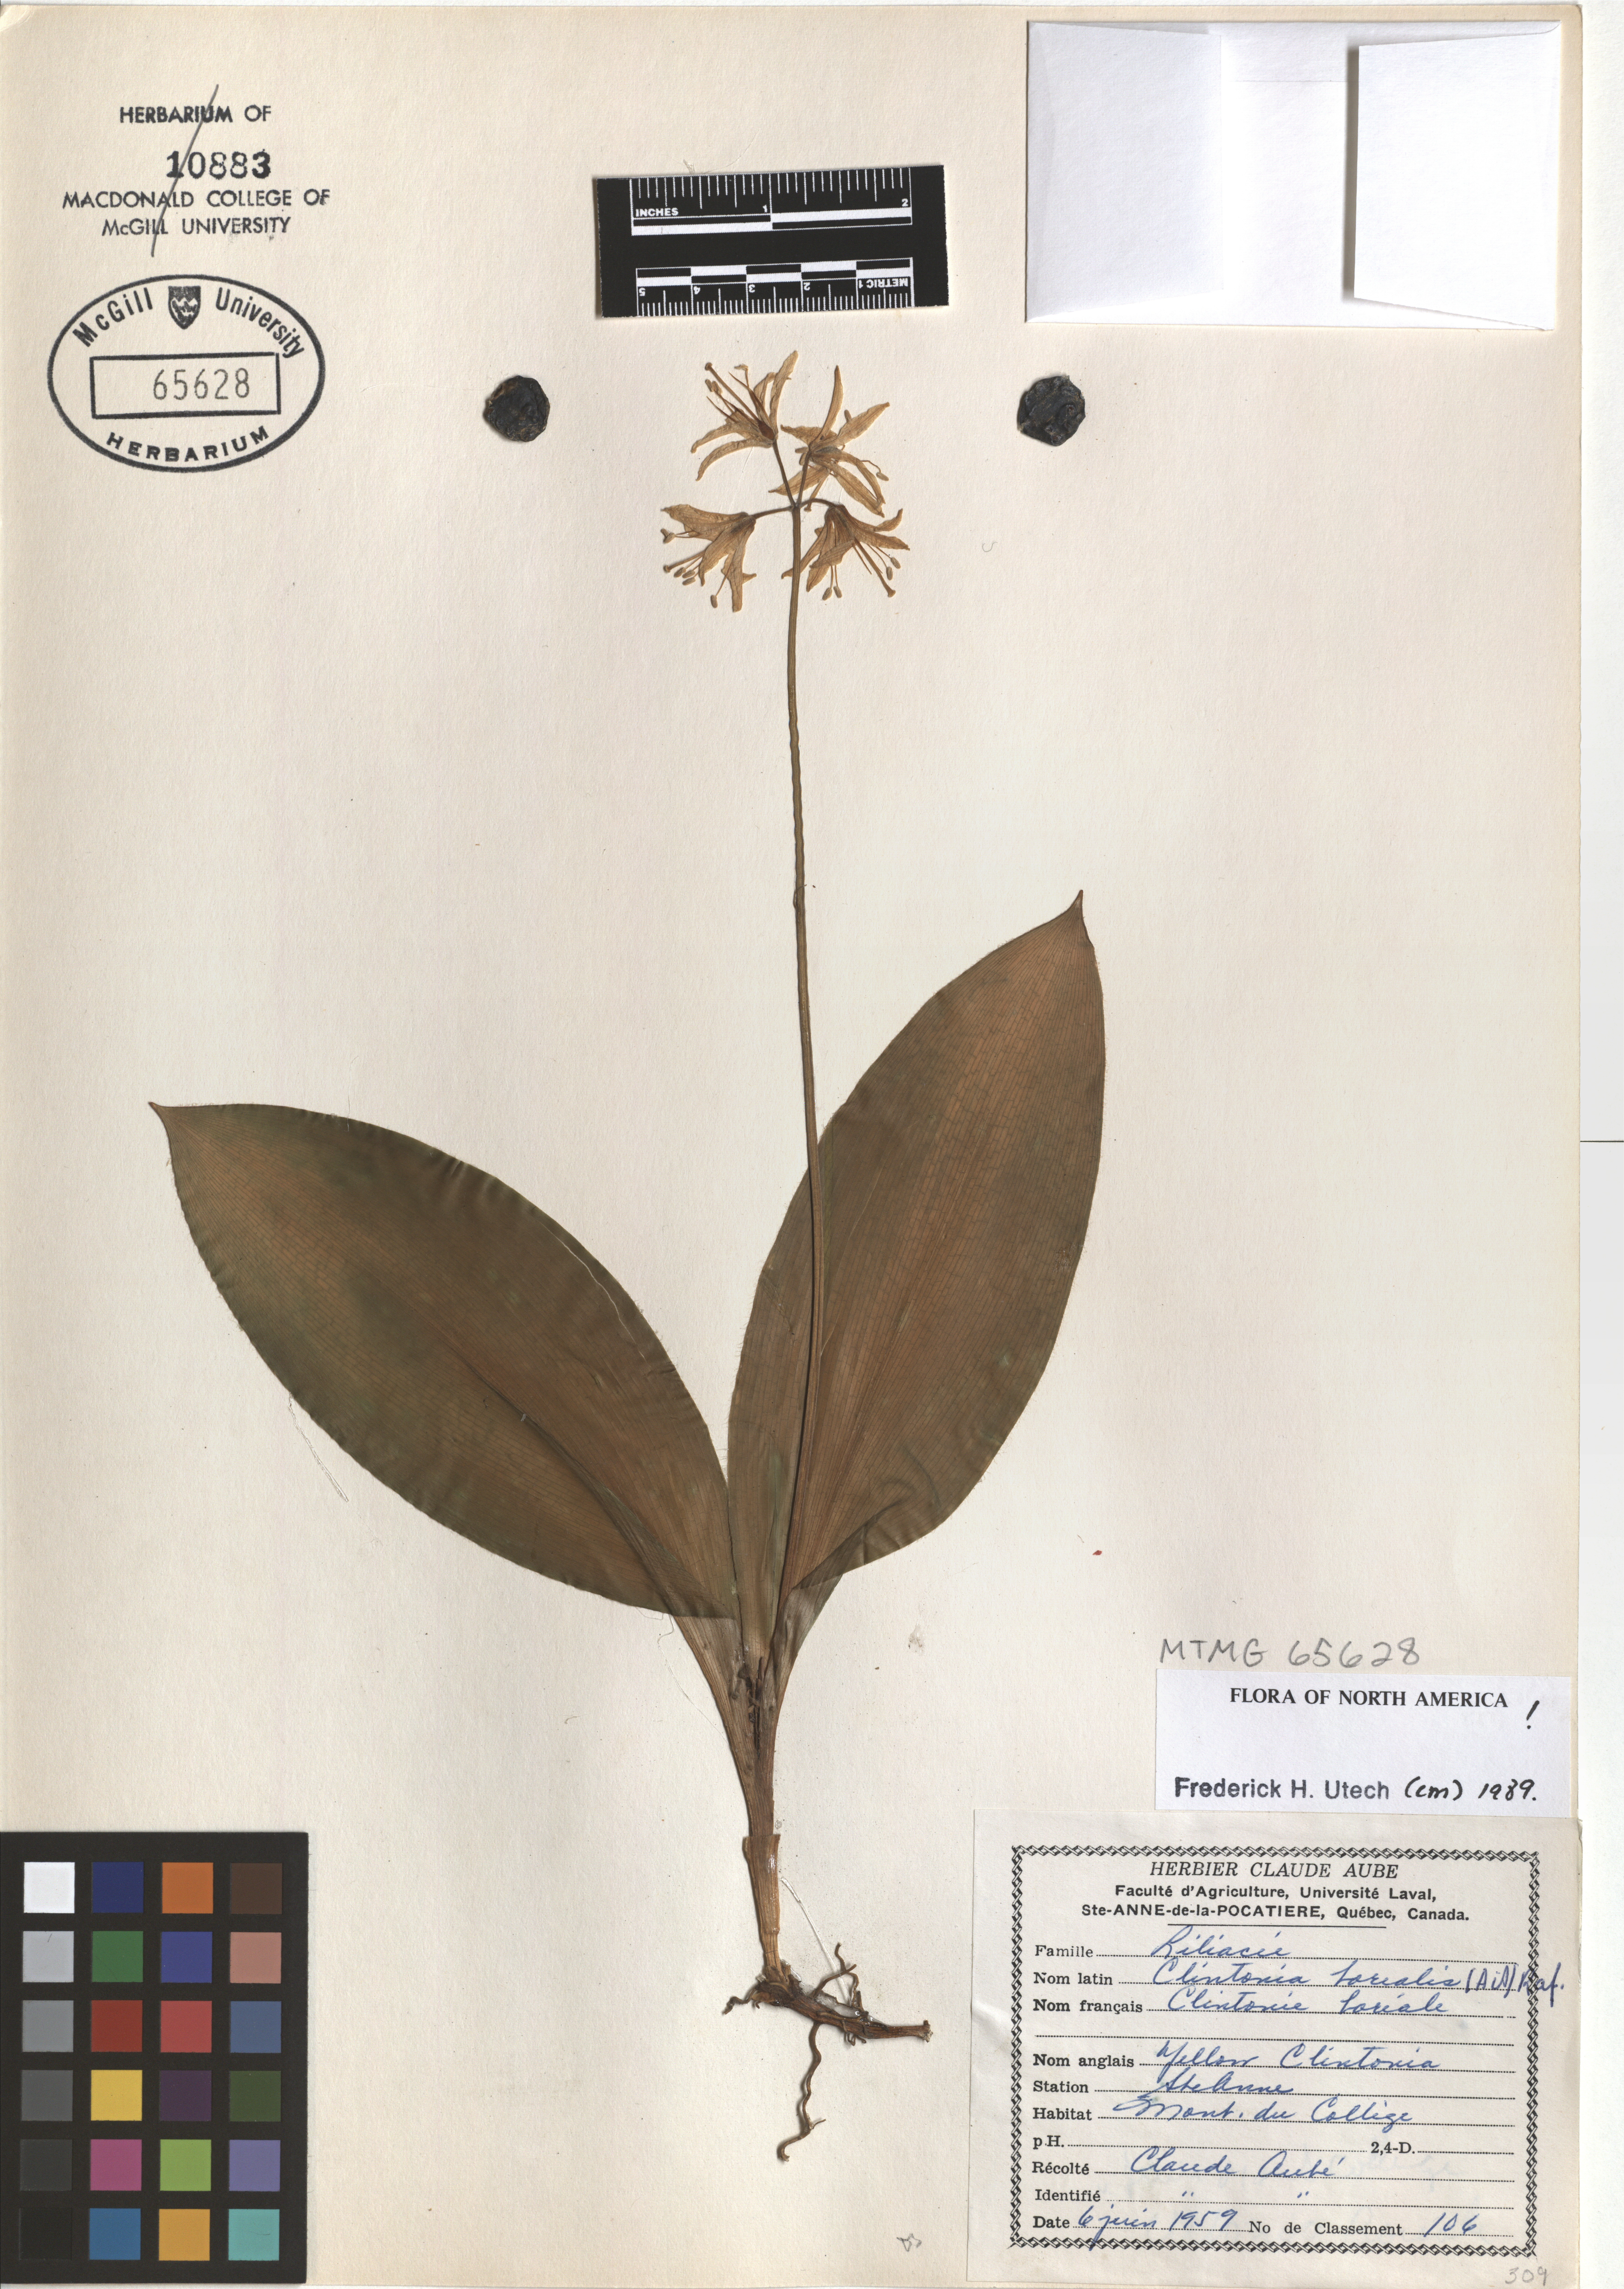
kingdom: Plantae
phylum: Tracheophyta
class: Liliopsida
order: Liliales
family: Liliaceae
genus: Clintonia
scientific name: Clintonia borealis
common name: Yellow clintonia
